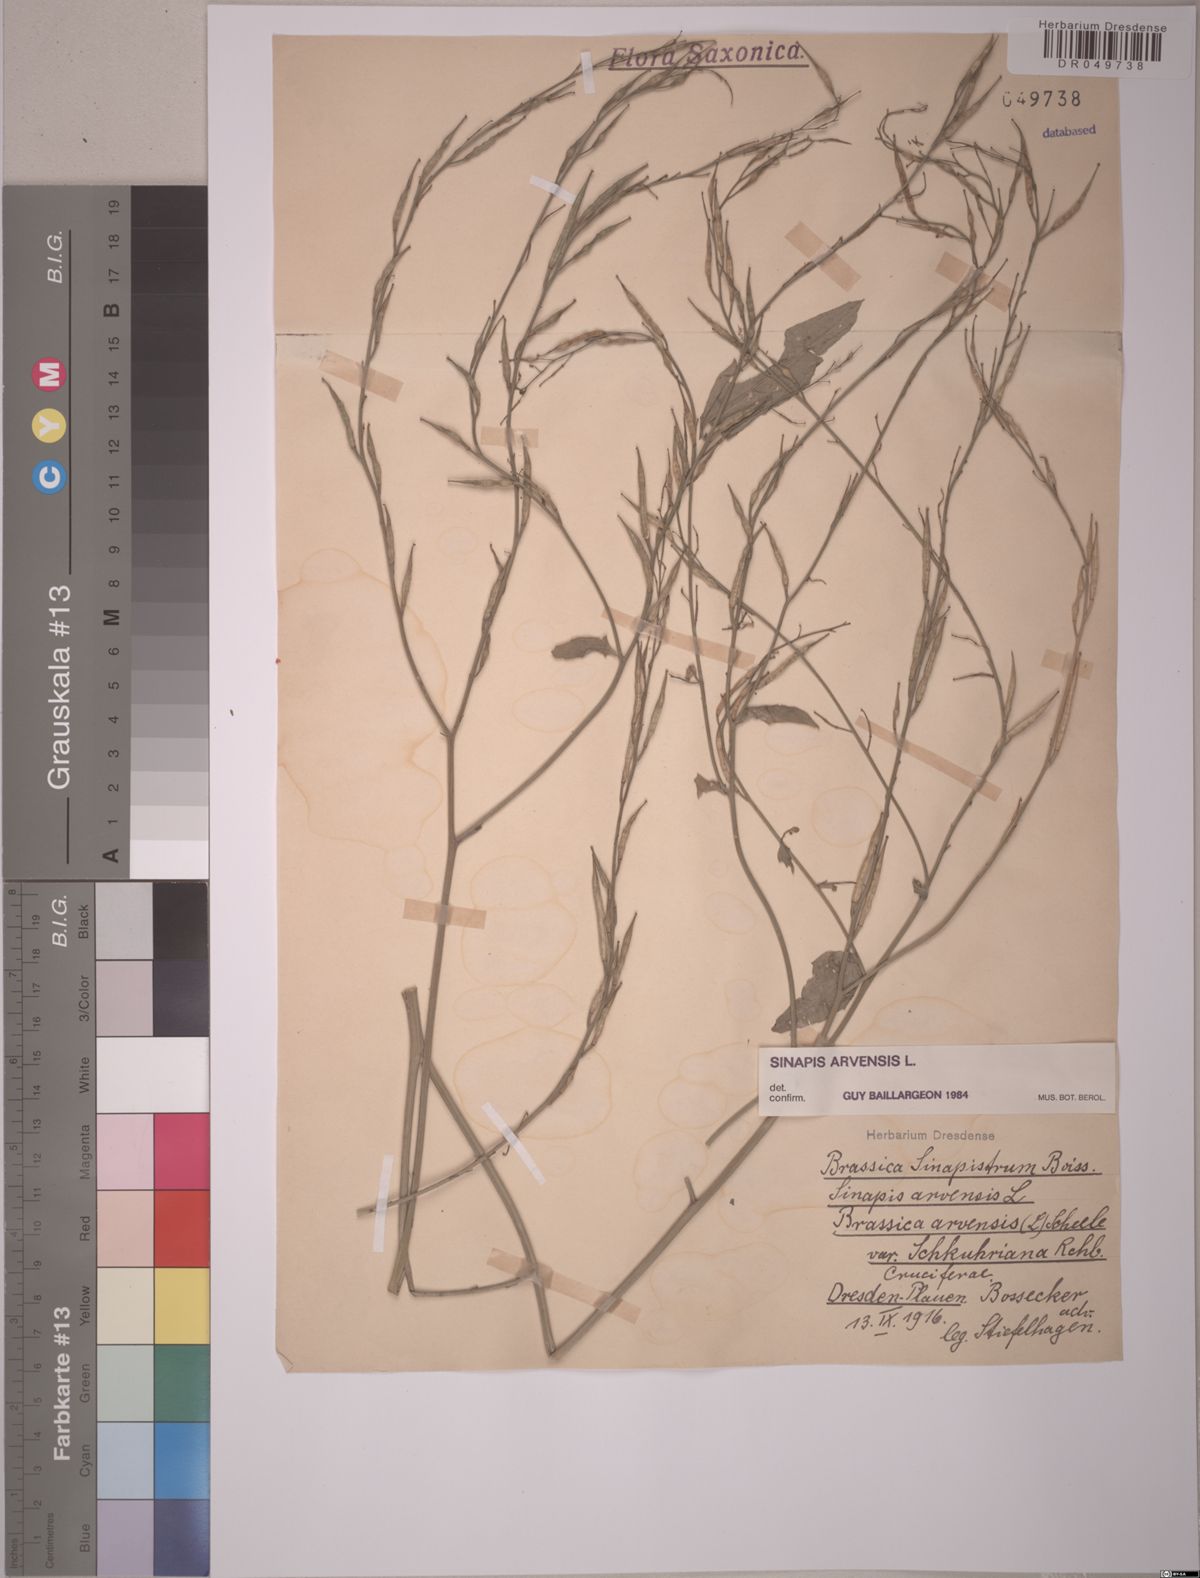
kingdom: Plantae
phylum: Tracheophyta
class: Magnoliopsida
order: Brassicales
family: Brassicaceae
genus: Sinapis
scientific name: Sinapis arvensis
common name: Charlock
